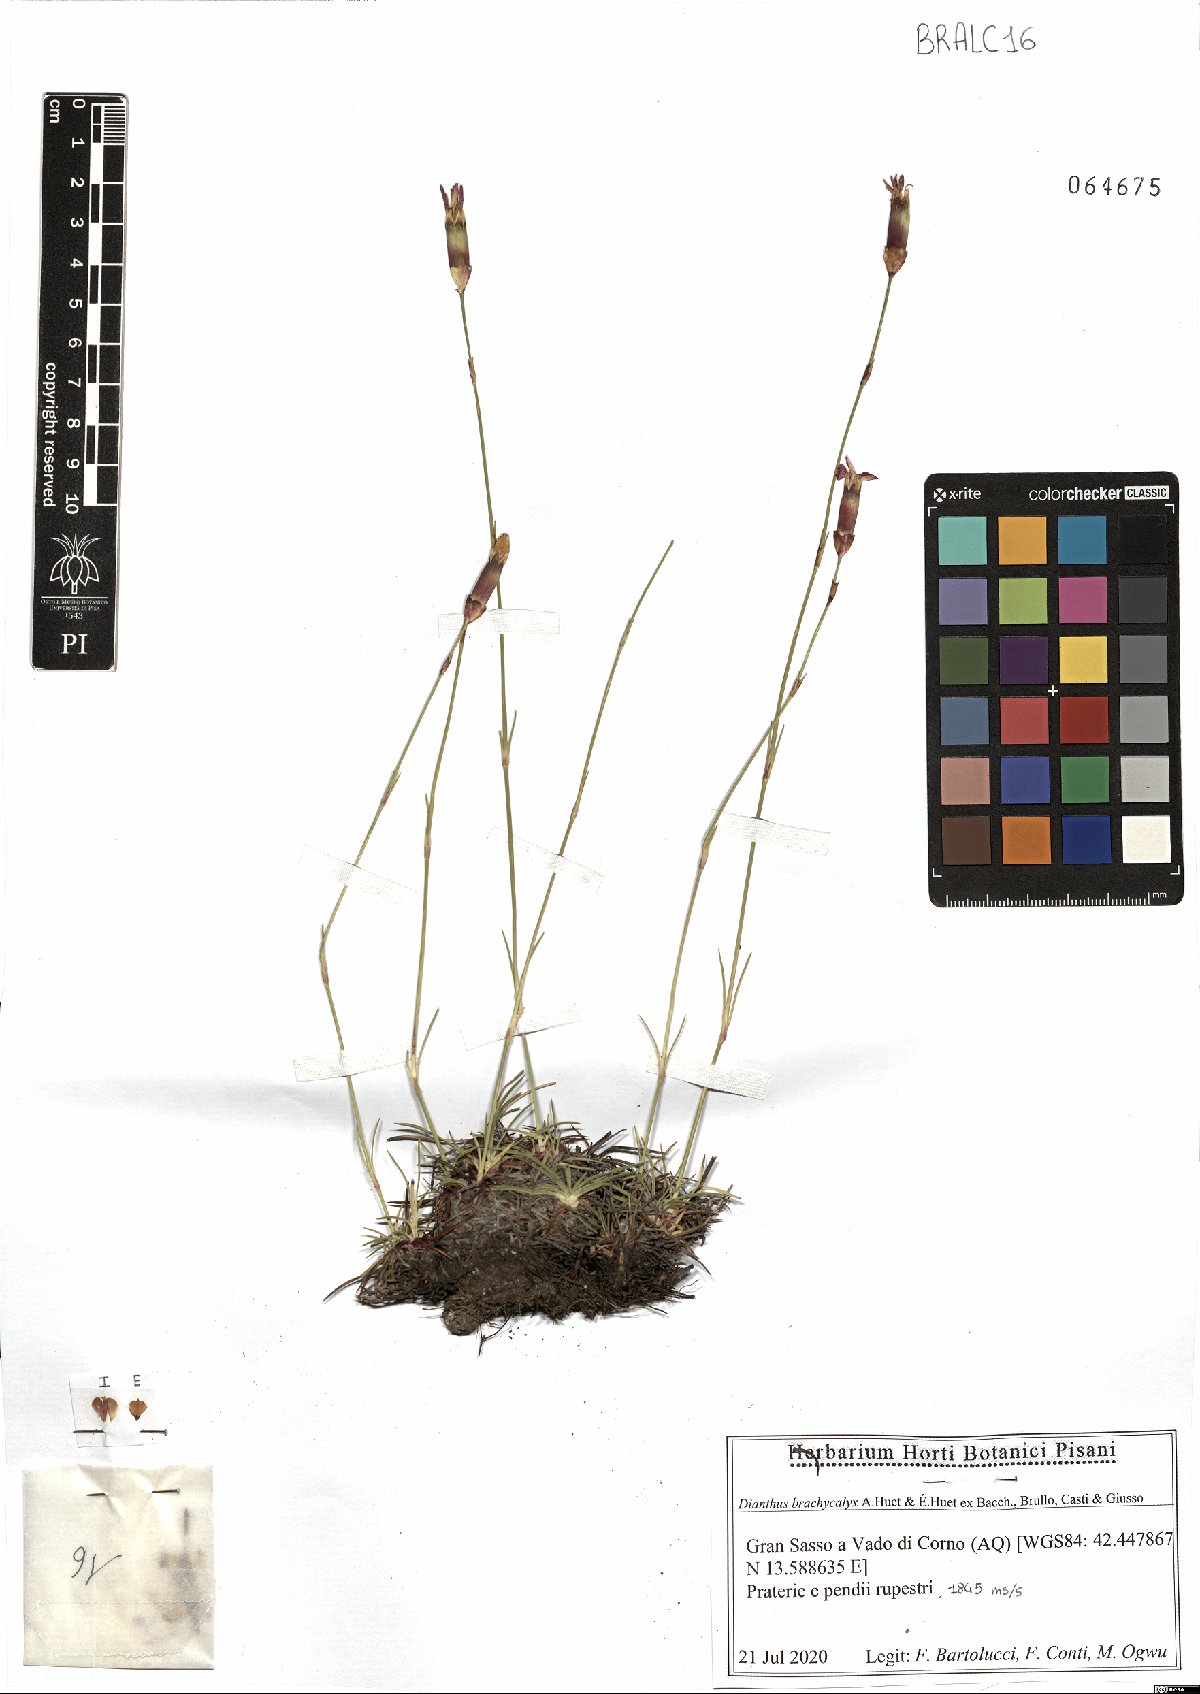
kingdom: Plantae
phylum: Tracheophyta
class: Magnoliopsida
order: Caryophyllales
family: Caryophyllaceae
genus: Dianthus
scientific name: Dianthus brachycalyx
